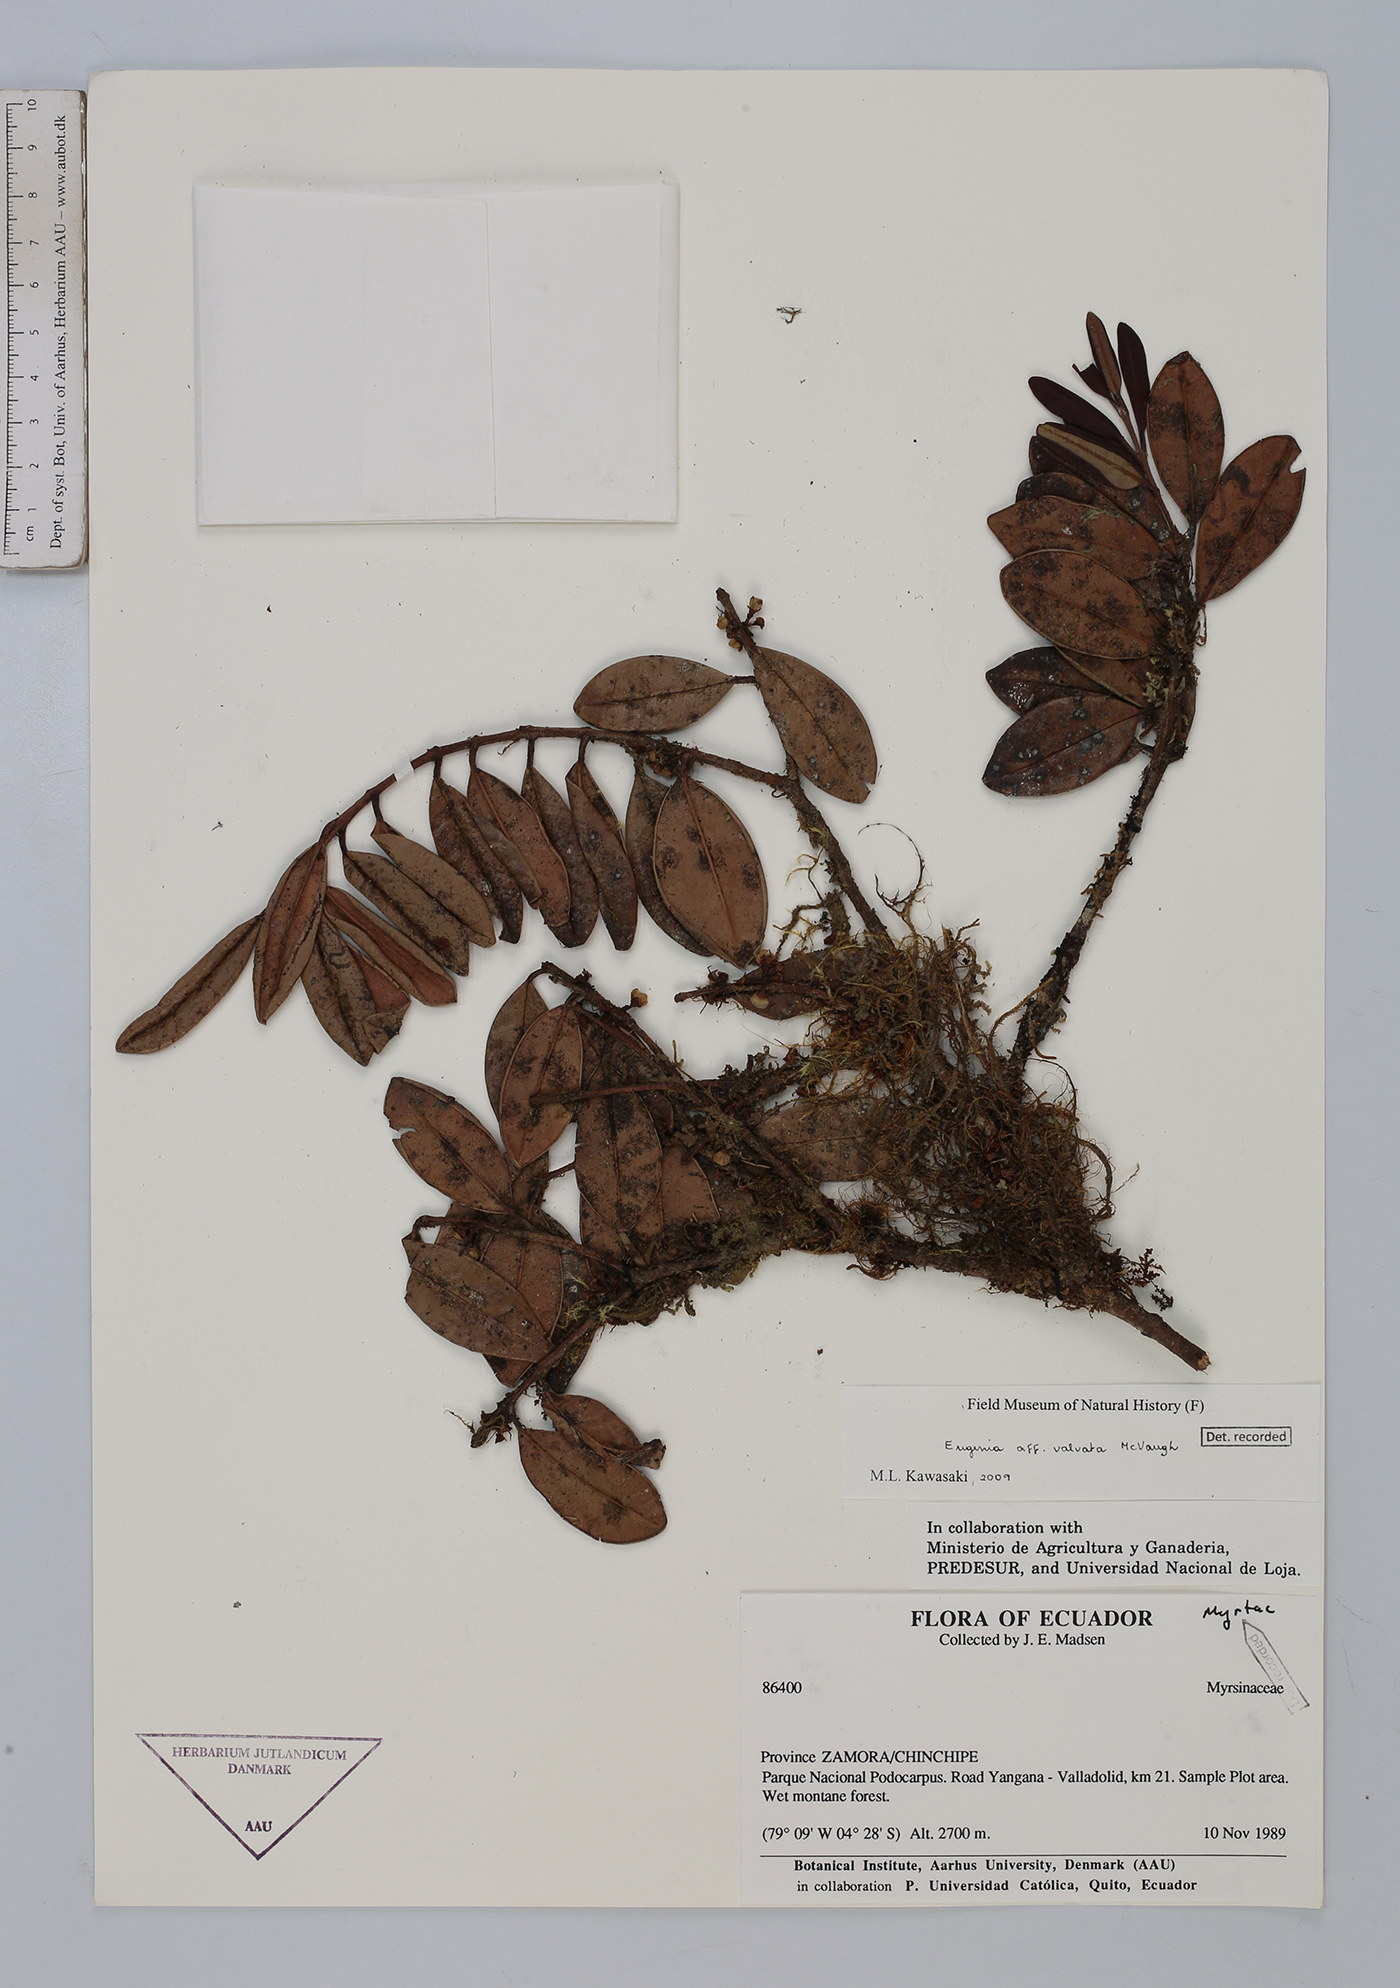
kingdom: Plantae
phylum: Tracheophyta
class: Magnoliopsida
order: Myrtales
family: Myrtaceae
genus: Eugenia
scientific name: Eugenia valvata
